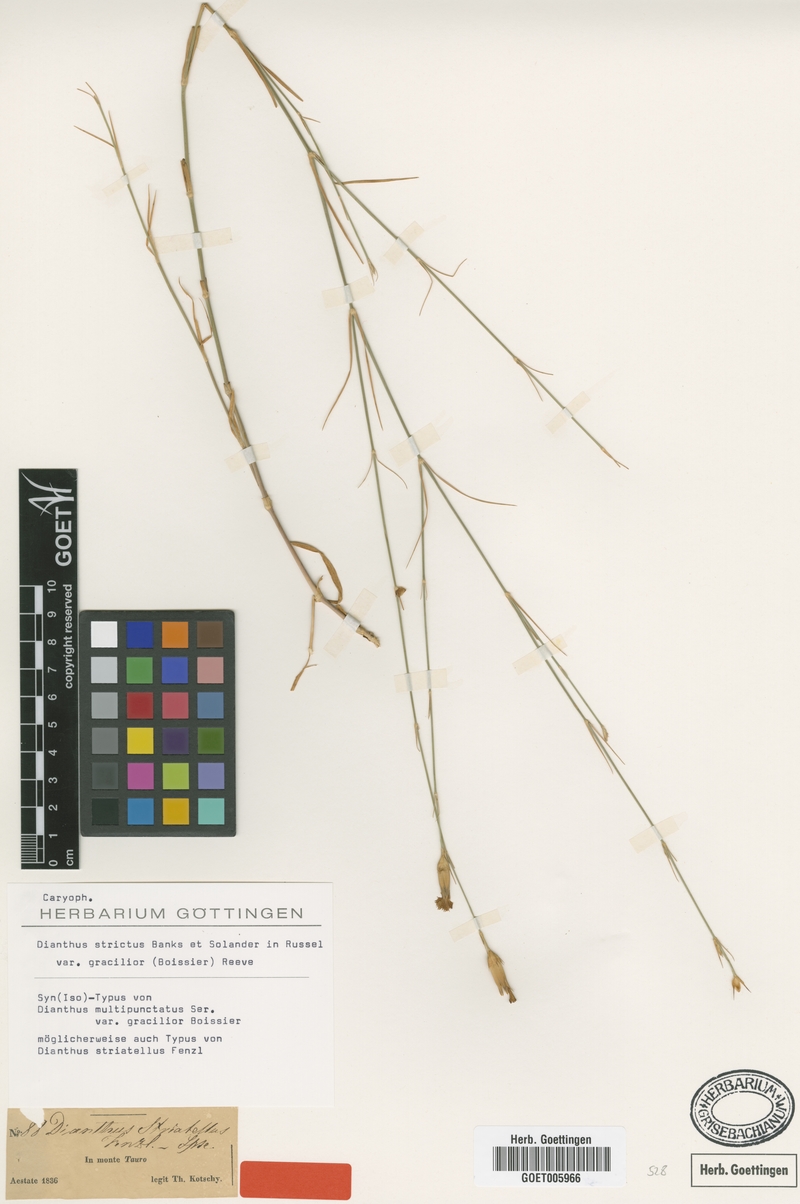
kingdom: Plantae
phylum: Tracheophyta
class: Magnoliopsida
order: Caryophyllales
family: Caryophyllaceae
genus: Dianthus
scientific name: Dianthus strictus
